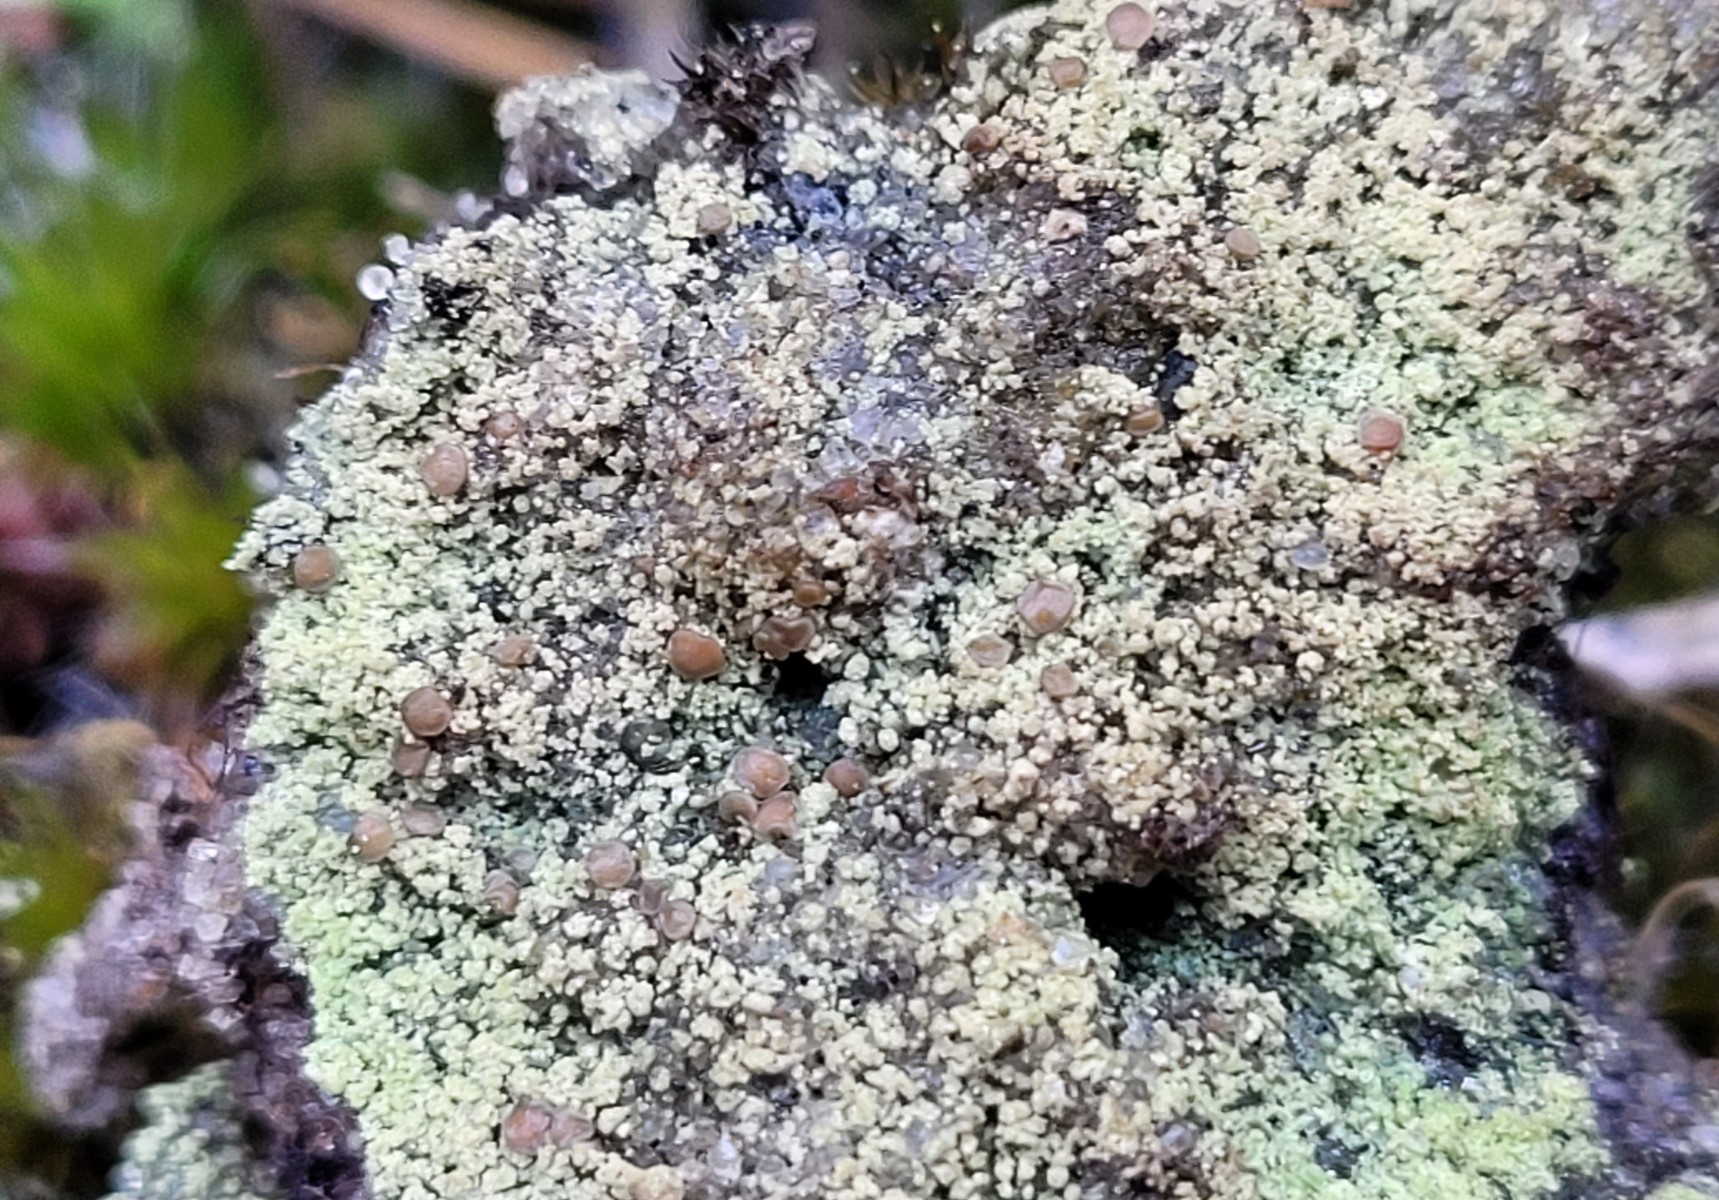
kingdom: Fungi
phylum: Ascomycota
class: Lecanoromycetes
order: Baeomycetales
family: Trapeliaceae
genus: Trapeliopsis
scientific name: Trapeliopsis granulosa
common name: forskelligfarvet skivelav
